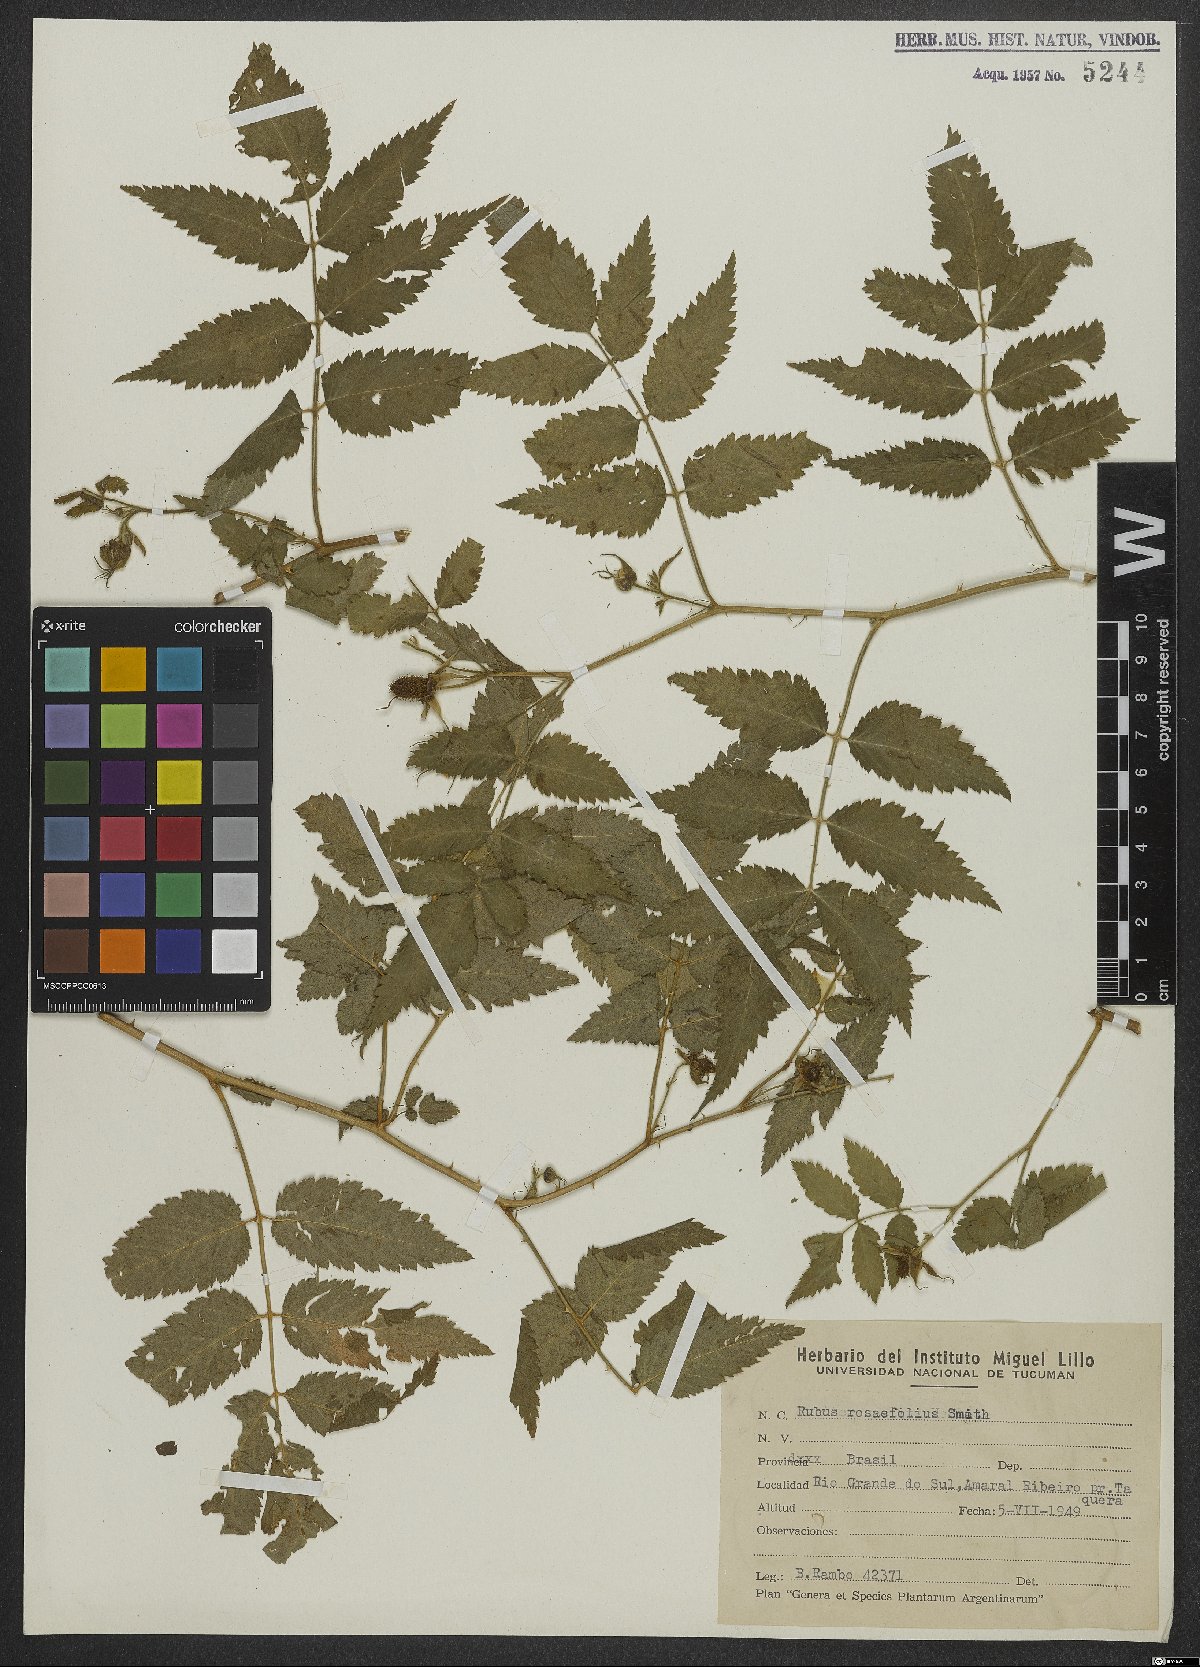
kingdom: Plantae
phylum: Tracheophyta
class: Magnoliopsida
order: Rosales
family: Rosaceae
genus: Prunus
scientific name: Prunus myrtifolia
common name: West indies cherry
